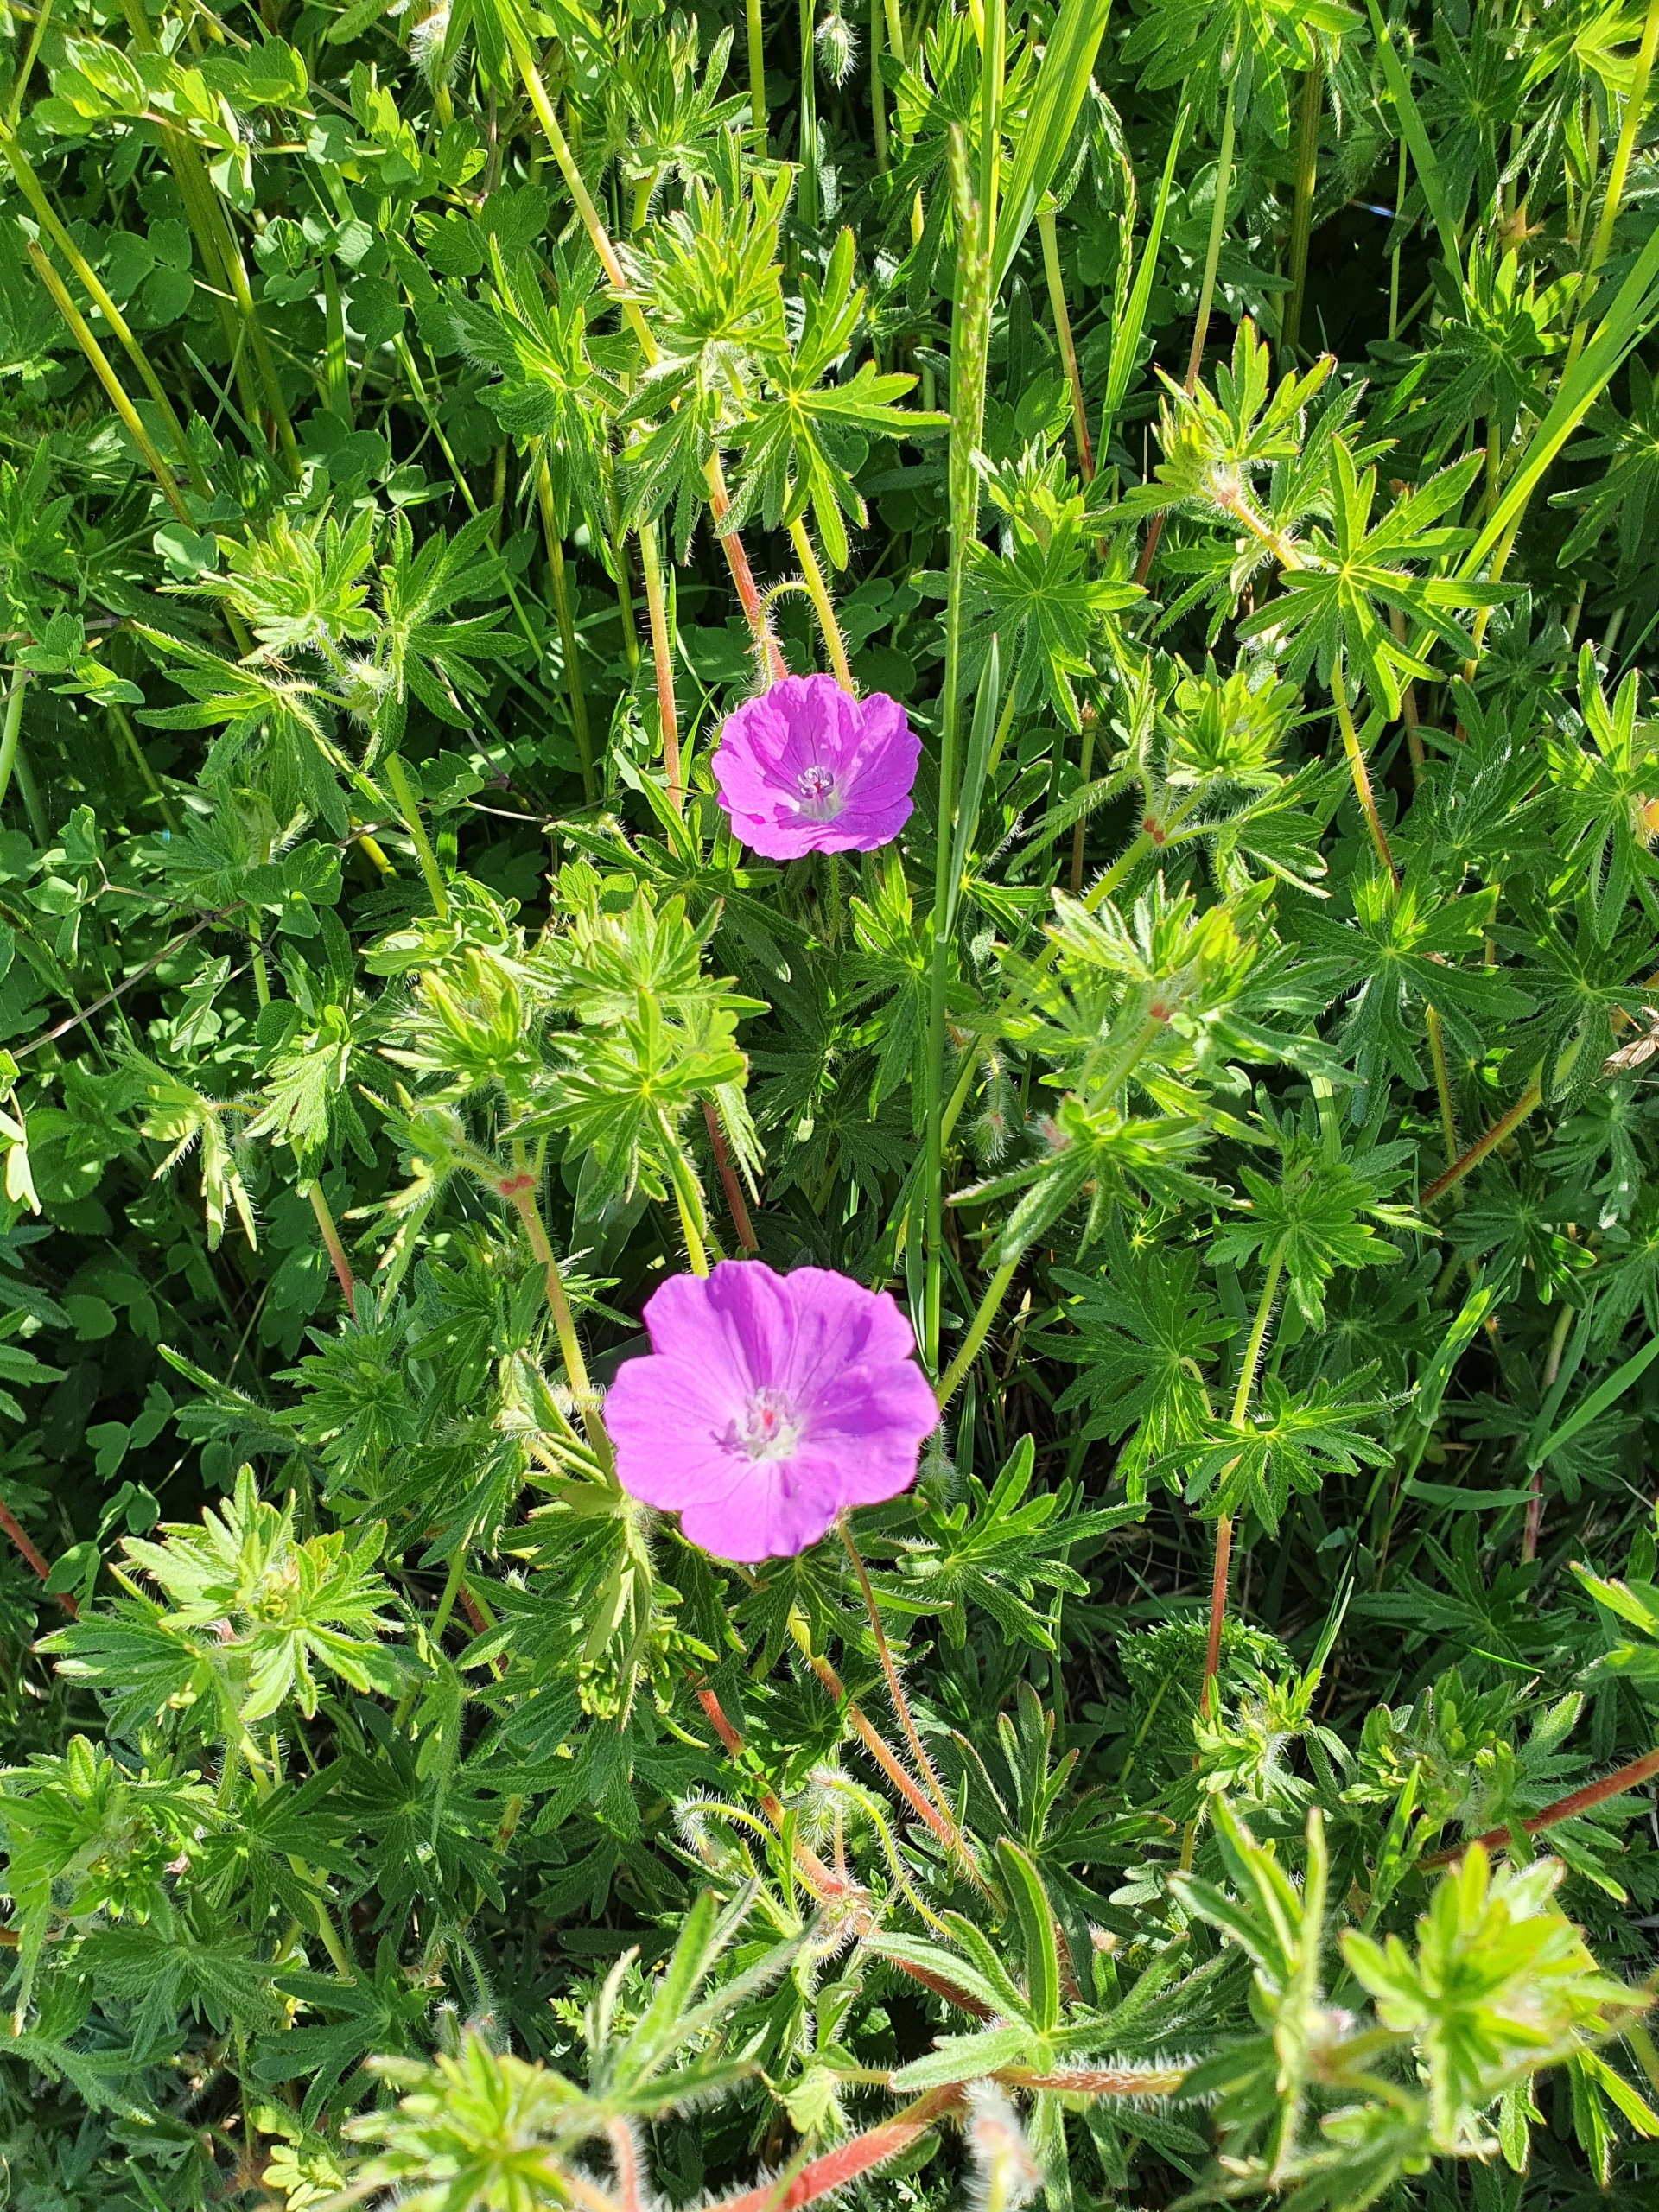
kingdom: Plantae
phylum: Tracheophyta
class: Magnoliopsida
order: Geraniales
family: Geraniaceae
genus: Geranium
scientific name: Geranium sanguineum
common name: Blodrød storkenæb
